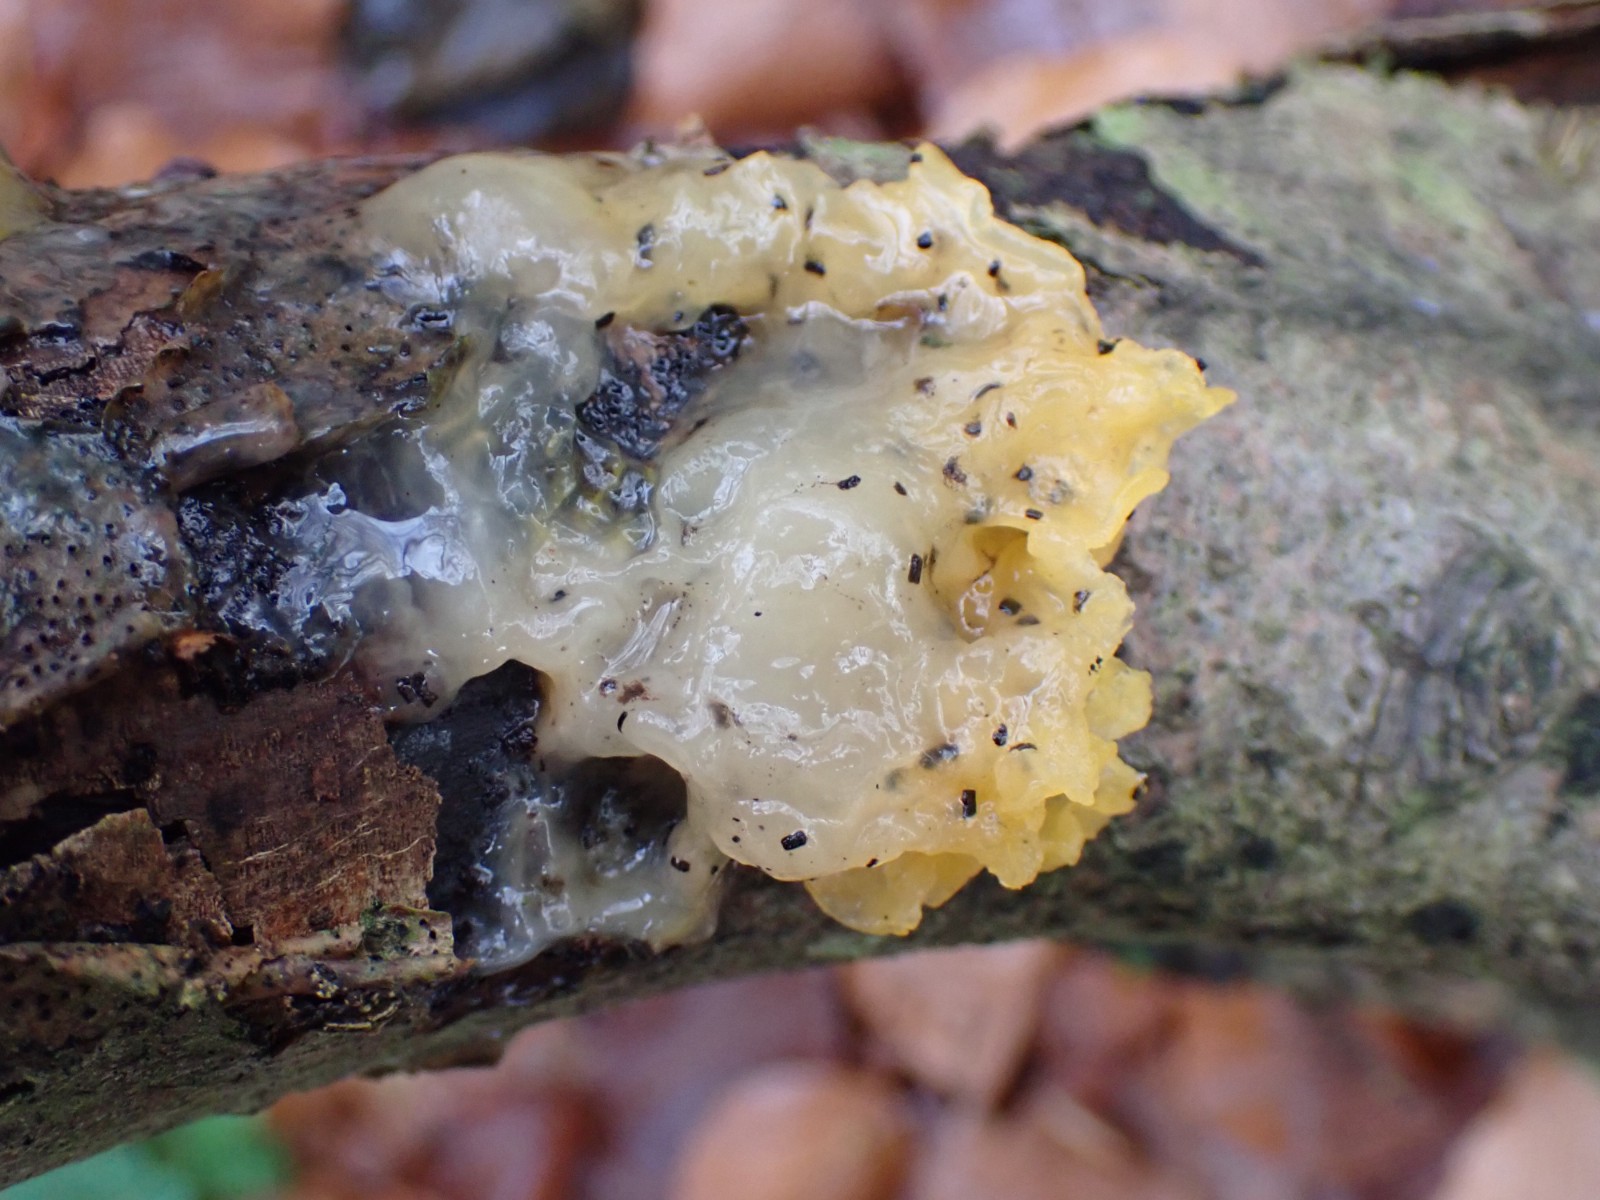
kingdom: Fungi
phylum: Basidiomycota
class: Tremellomycetes
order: Tremellales
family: Tremellaceae
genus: Tremella
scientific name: Tremella mesenterica
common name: gul bævresvamp
